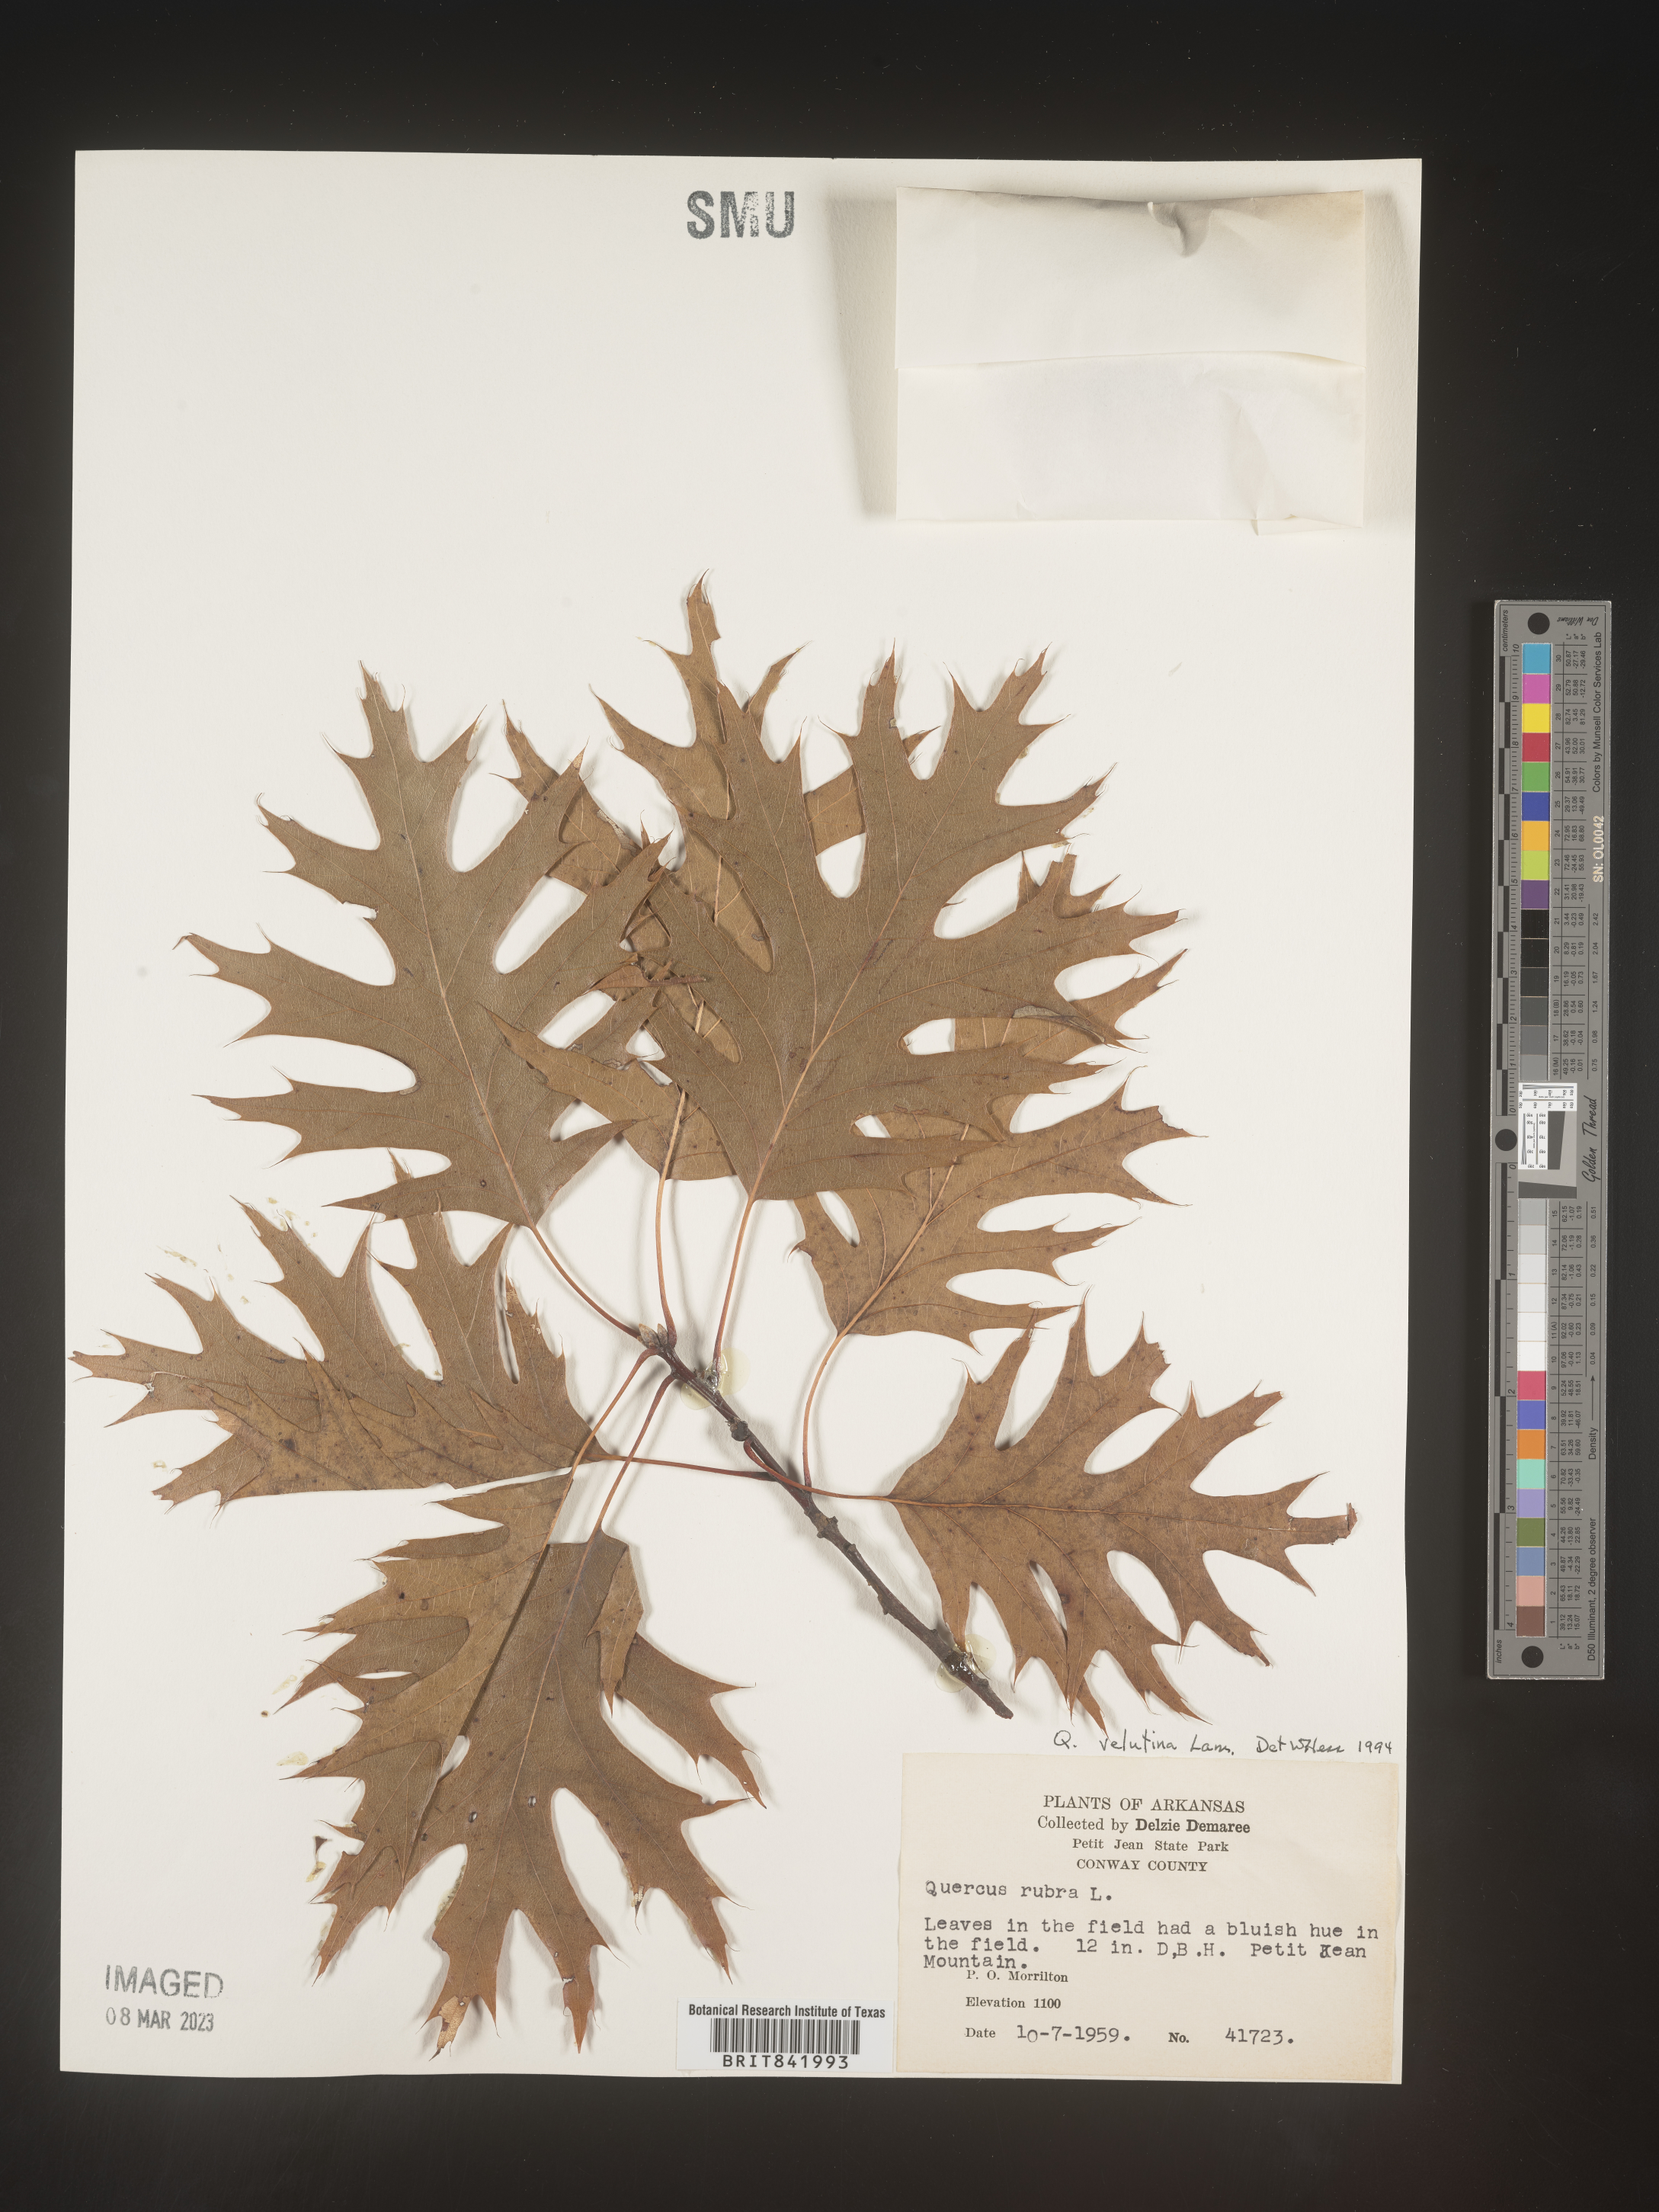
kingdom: Plantae
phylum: Tracheophyta
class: Magnoliopsida
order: Fagales
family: Fagaceae
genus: Quercus
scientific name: Quercus velutina
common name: Black oak
